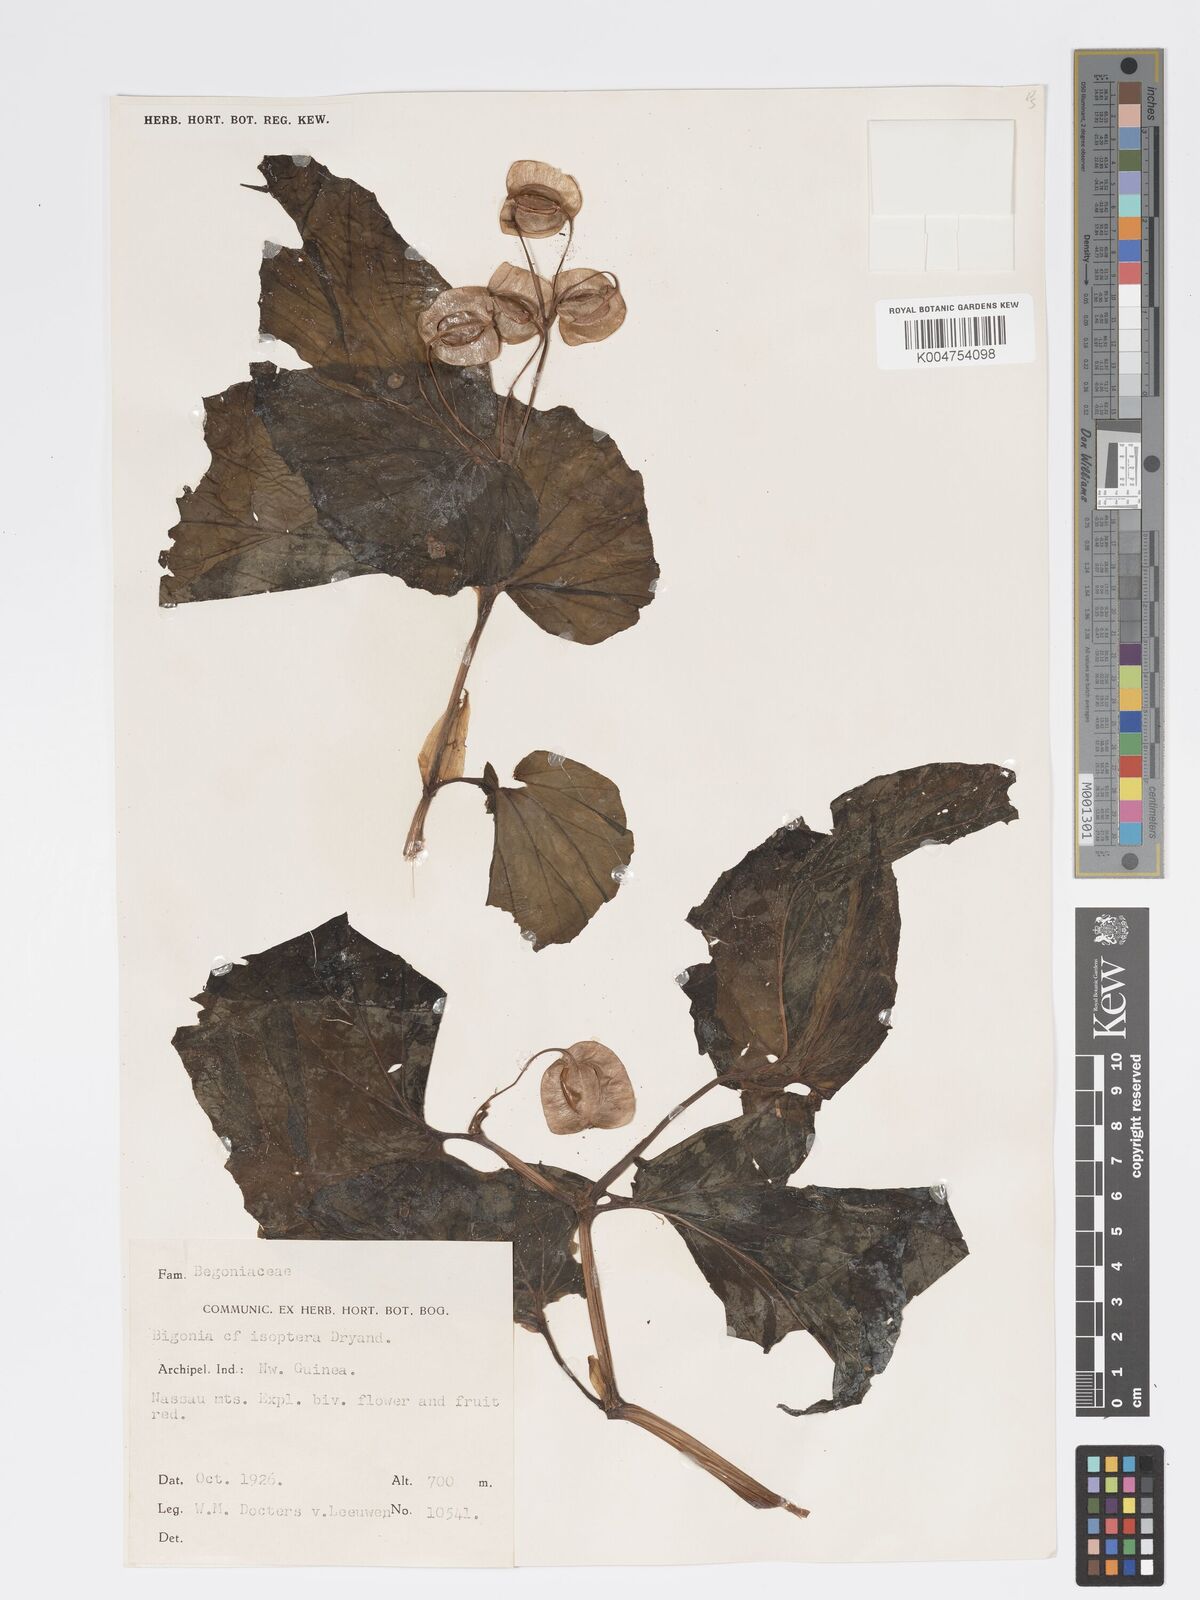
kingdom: Plantae
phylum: Tracheophyta
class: Magnoliopsida
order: Cucurbitales
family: Begoniaceae
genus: Begonia
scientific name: Begonia
